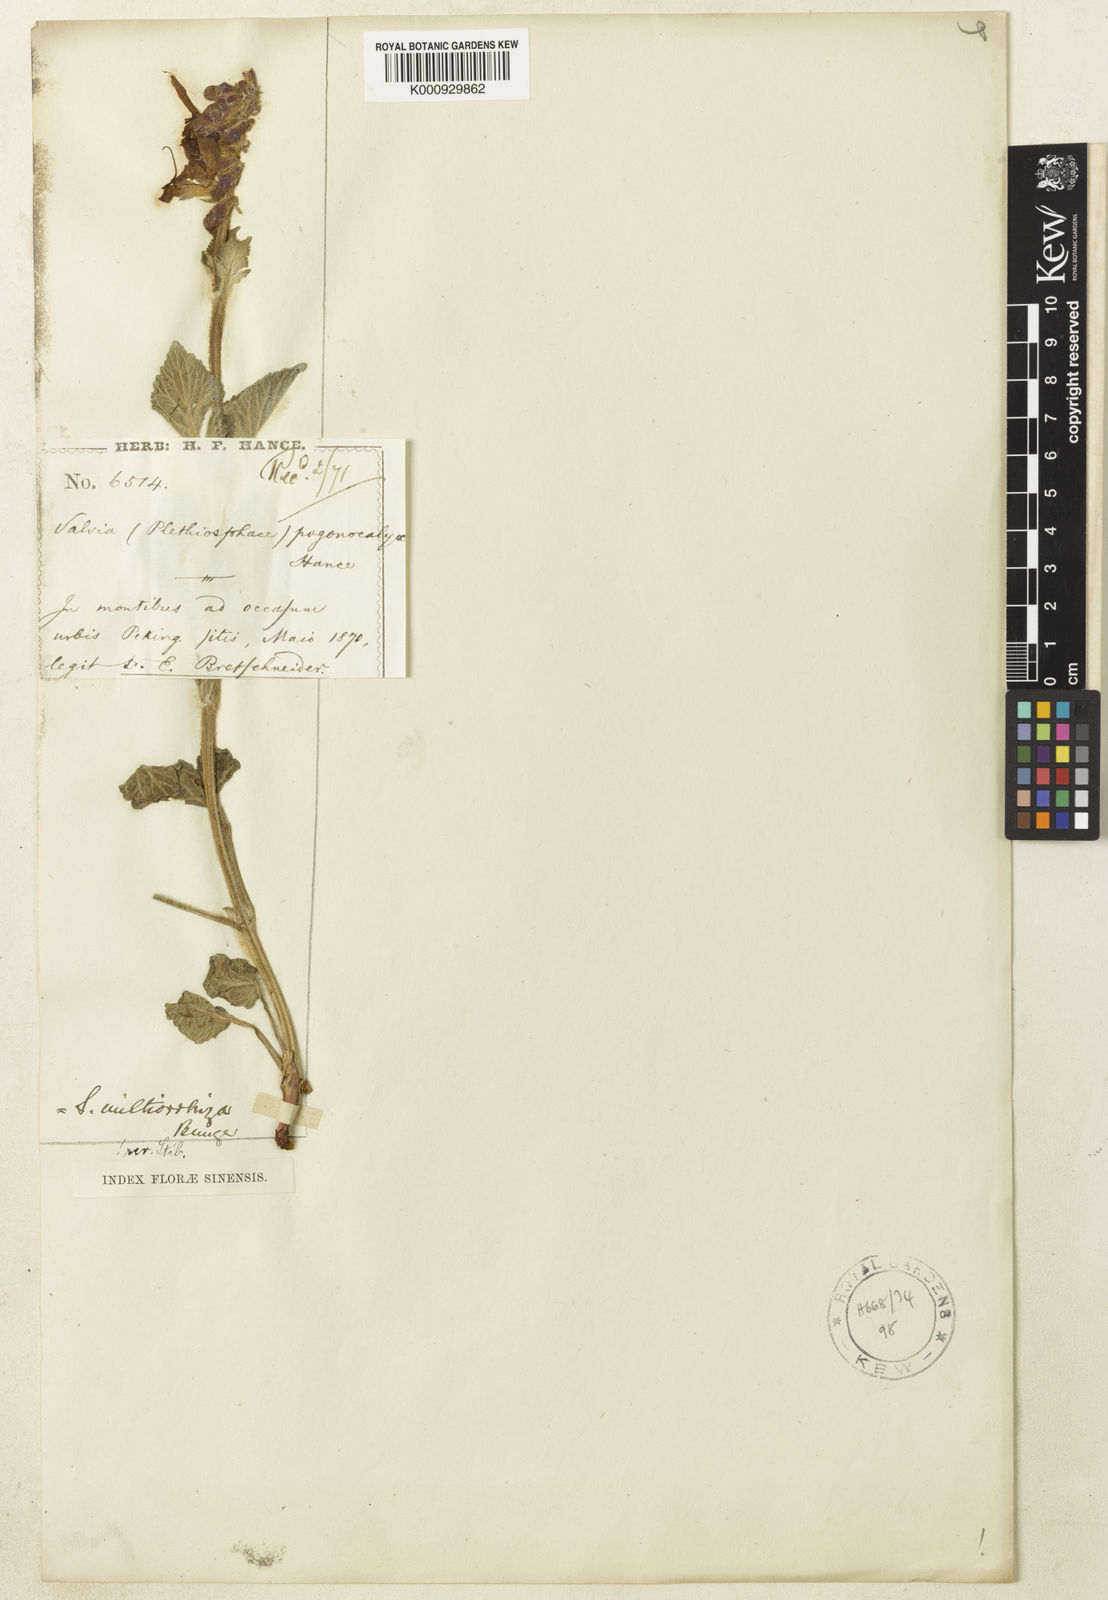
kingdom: Plantae
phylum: Tracheophyta
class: Magnoliopsida
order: Lamiales
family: Lamiaceae
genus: Salvia
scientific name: Salvia miltiorrhiza
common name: Redroot sage
